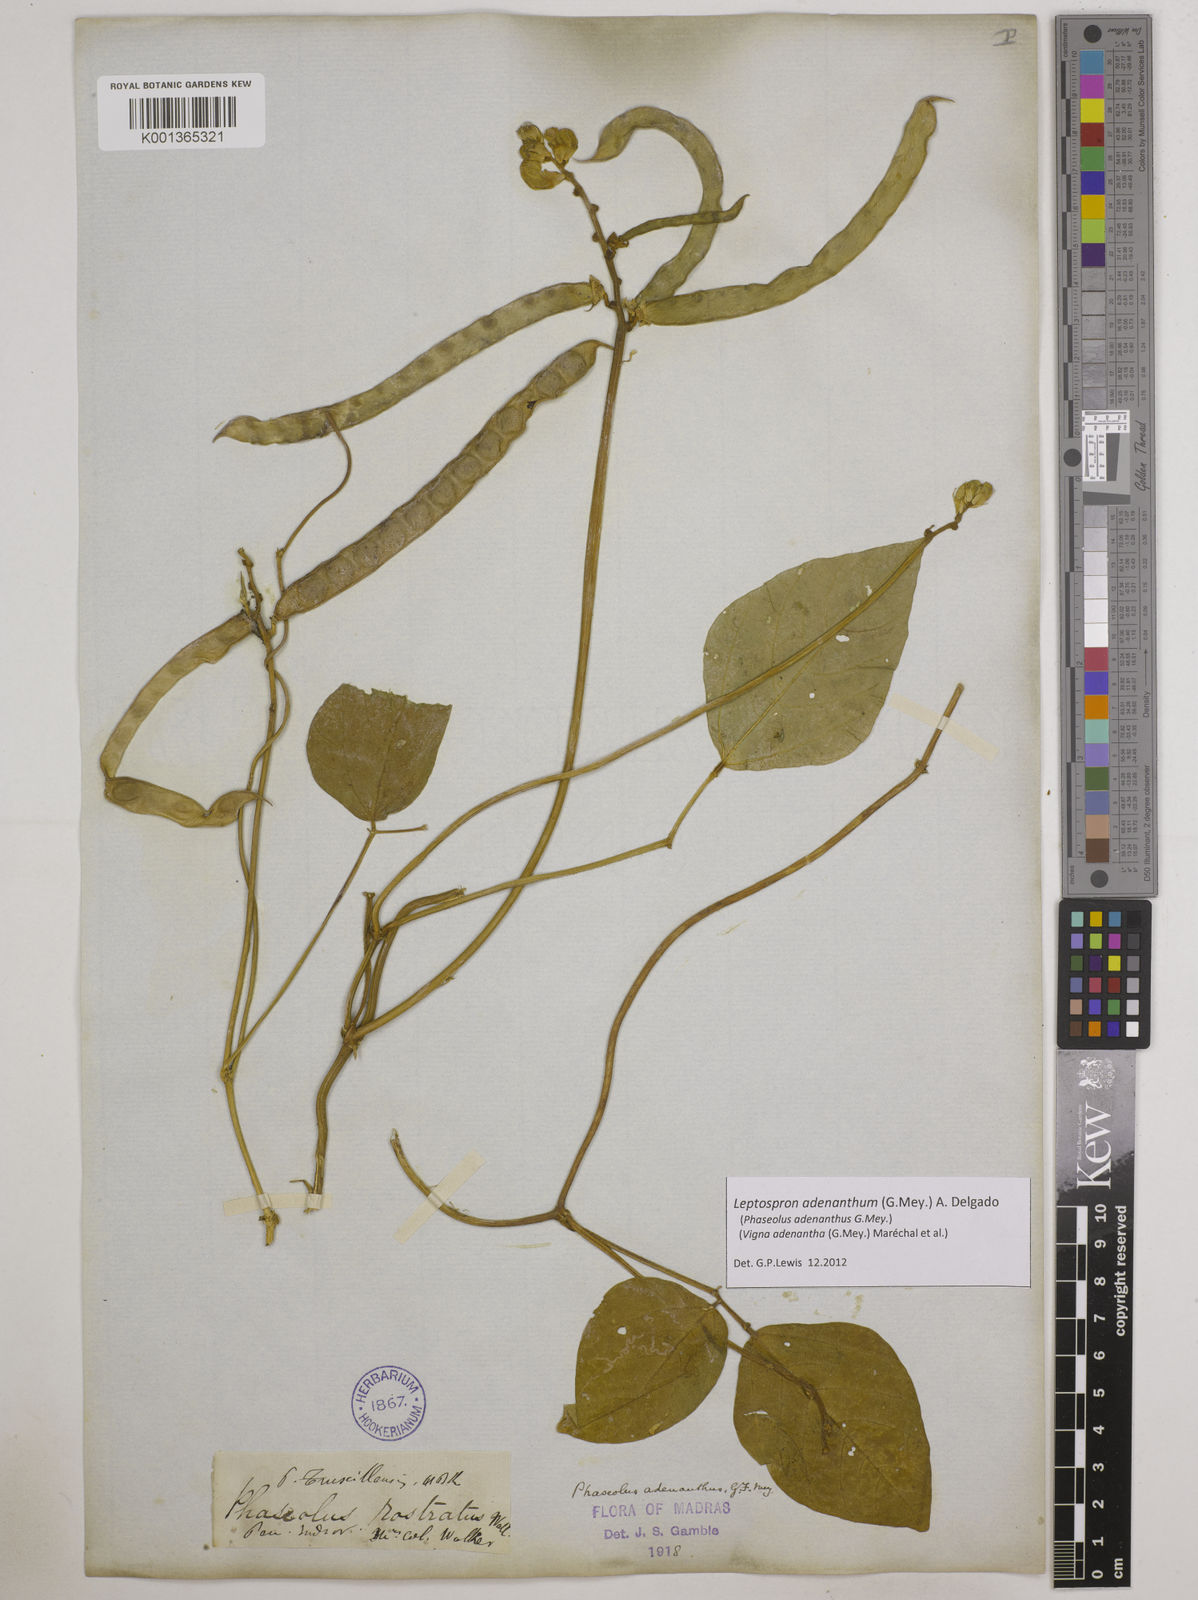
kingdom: Plantae
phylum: Tracheophyta
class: Magnoliopsida
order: Fabales
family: Fabaceae
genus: Leptospron
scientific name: Leptospron adenanthum
